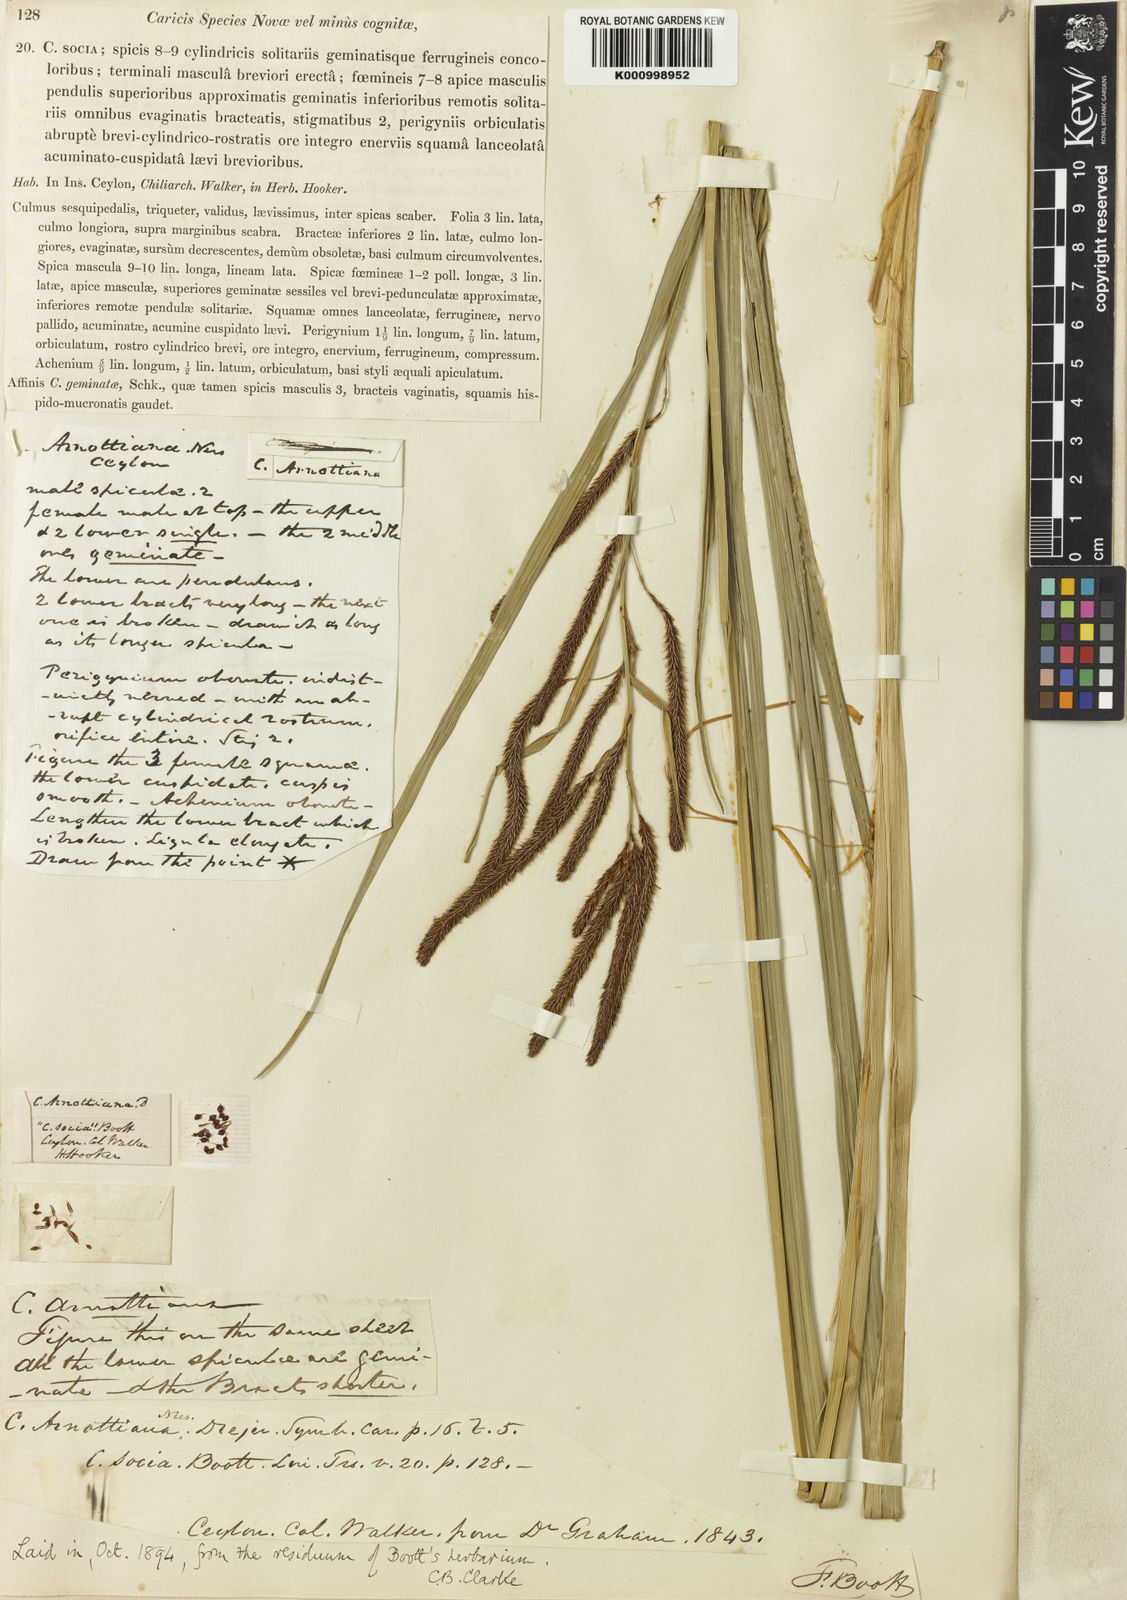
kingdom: Plantae
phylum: Tracheophyta
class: Liliopsida
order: Poales
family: Cyperaceae
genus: Carex
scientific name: Carex arnottiana
